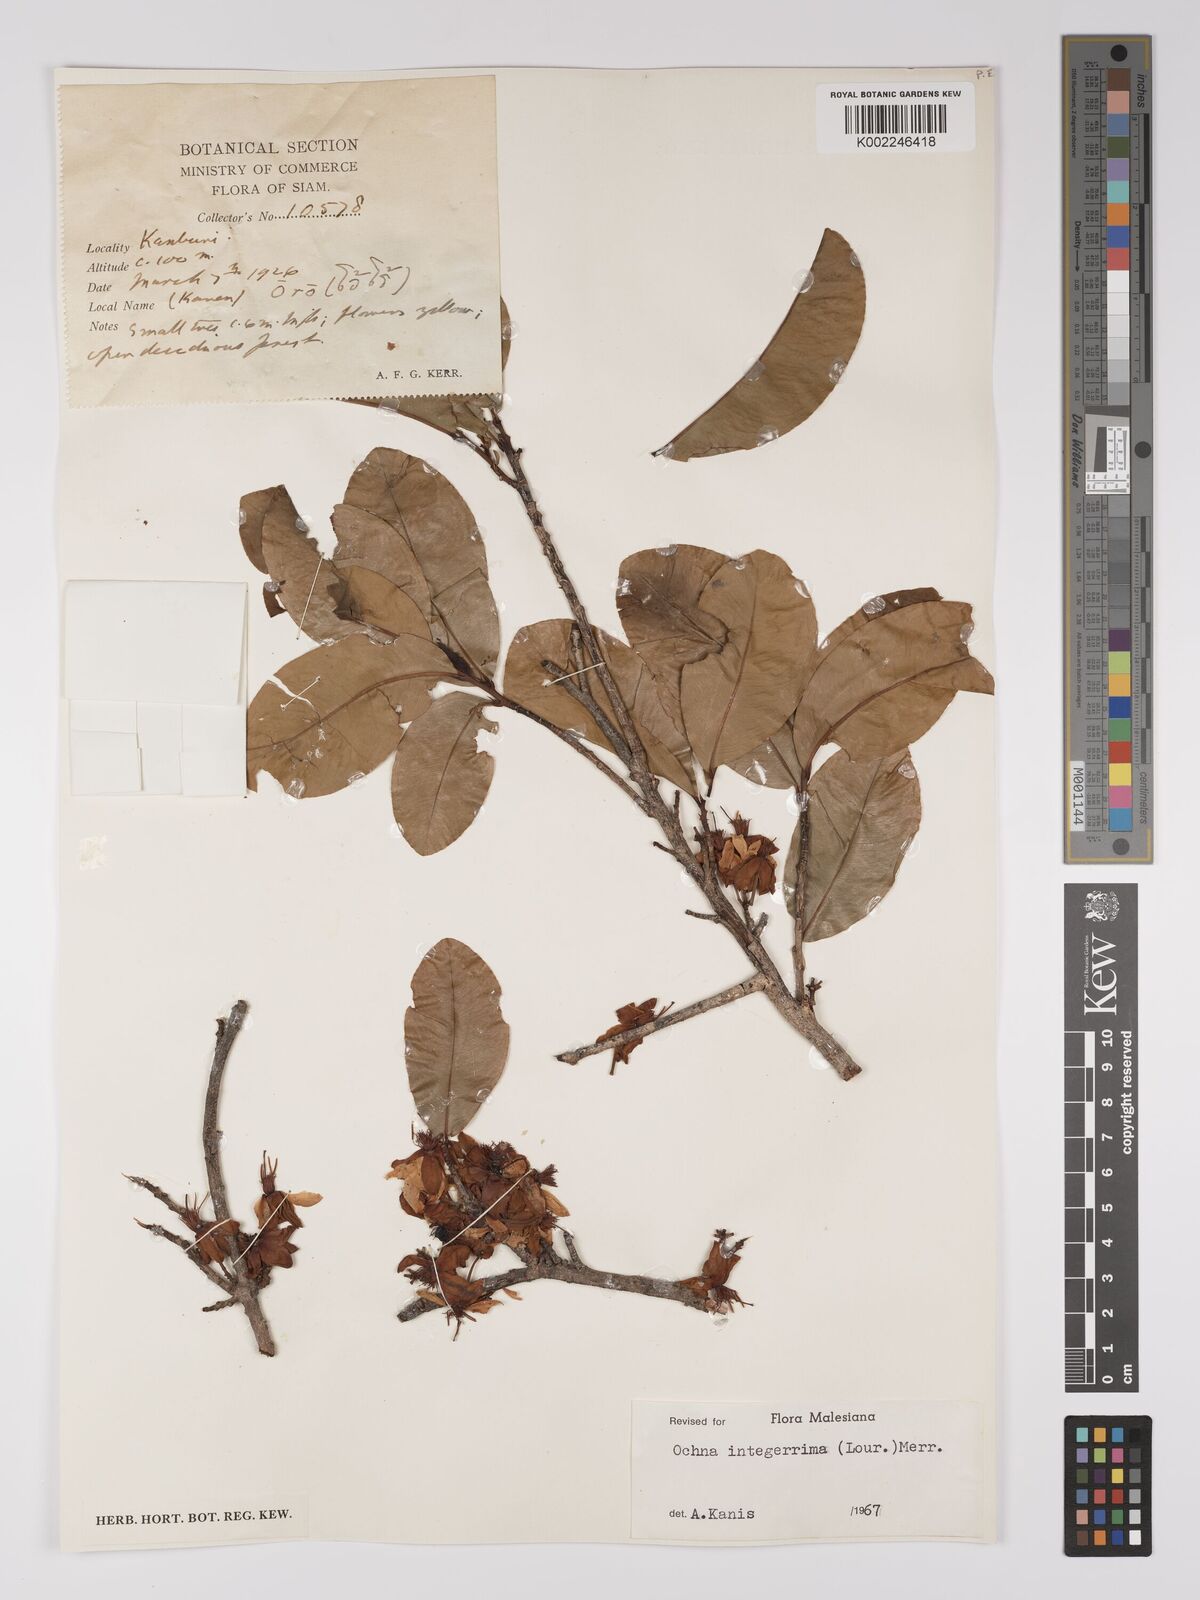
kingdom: Plantae
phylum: Tracheophyta
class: Magnoliopsida
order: Malpighiales
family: Ochnaceae
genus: Ochna
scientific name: Ochna integerrima
